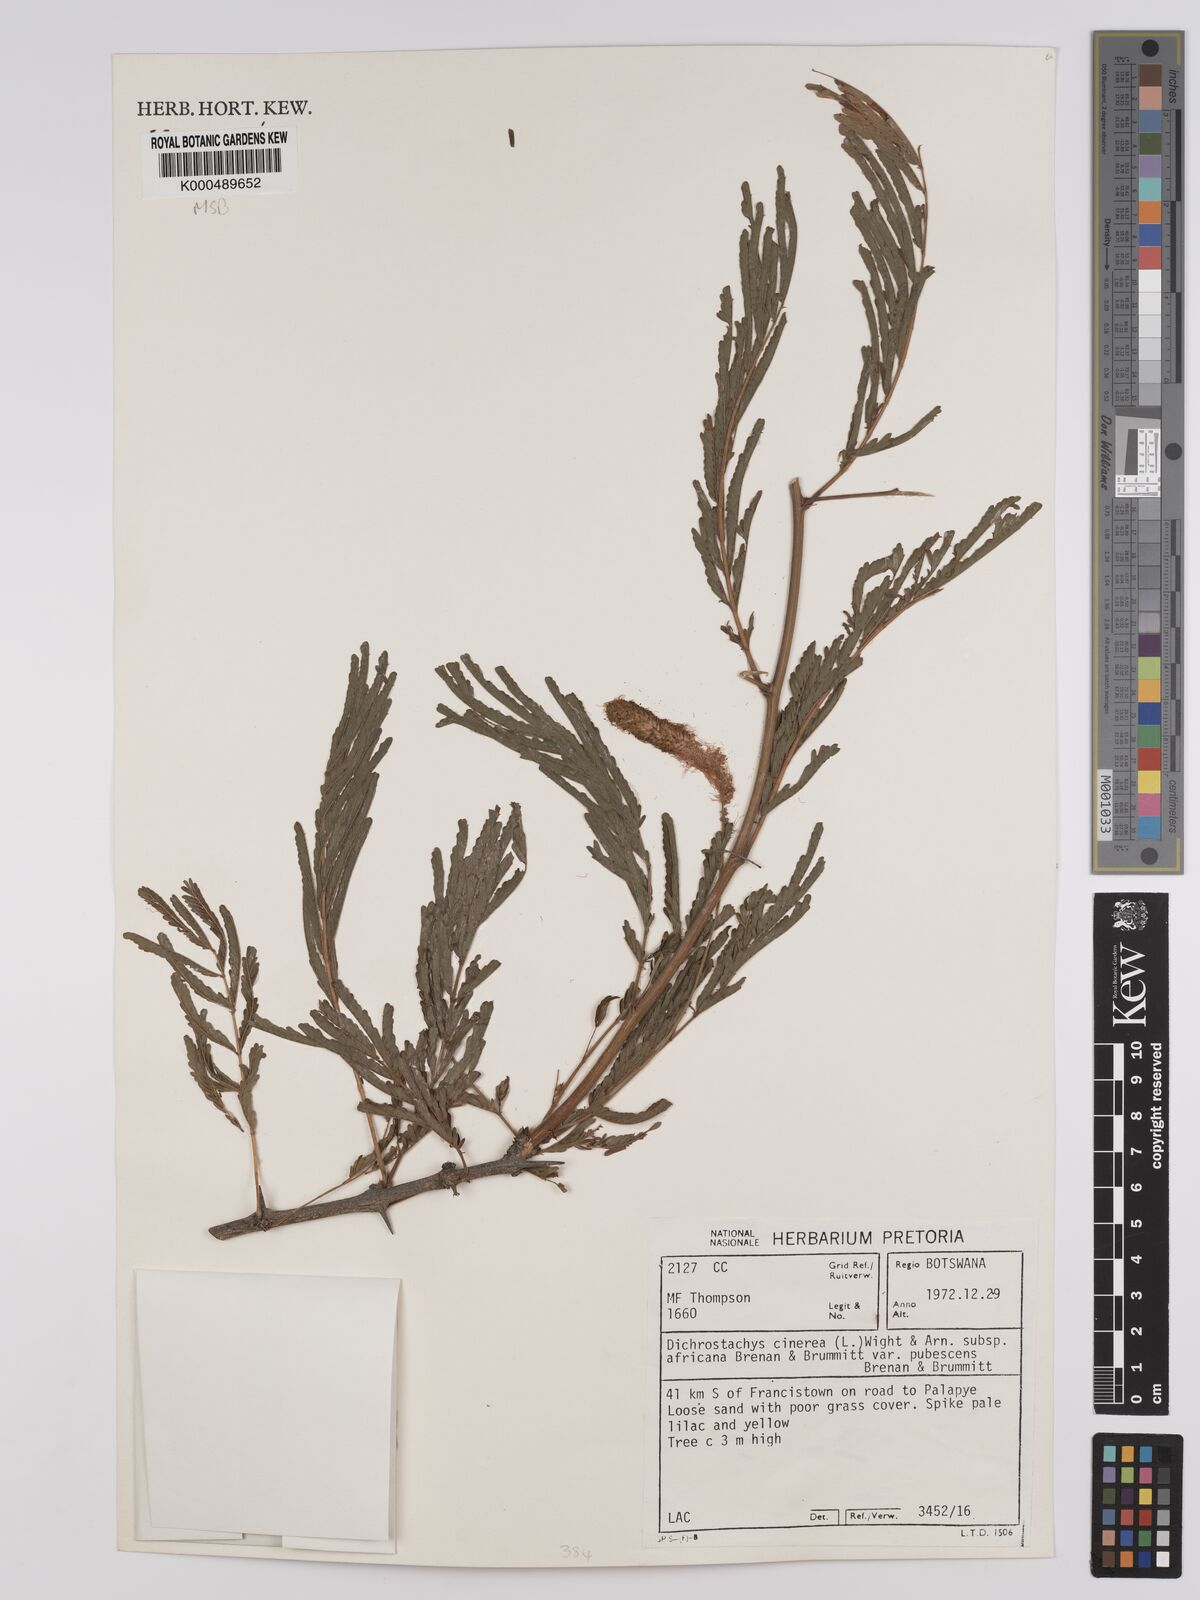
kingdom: Plantae
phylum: Tracheophyta
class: Magnoliopsida
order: Fabales
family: Fabaceae
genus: Dichrostachys
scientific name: Dichrostachys cinerea
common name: Sicklebush
